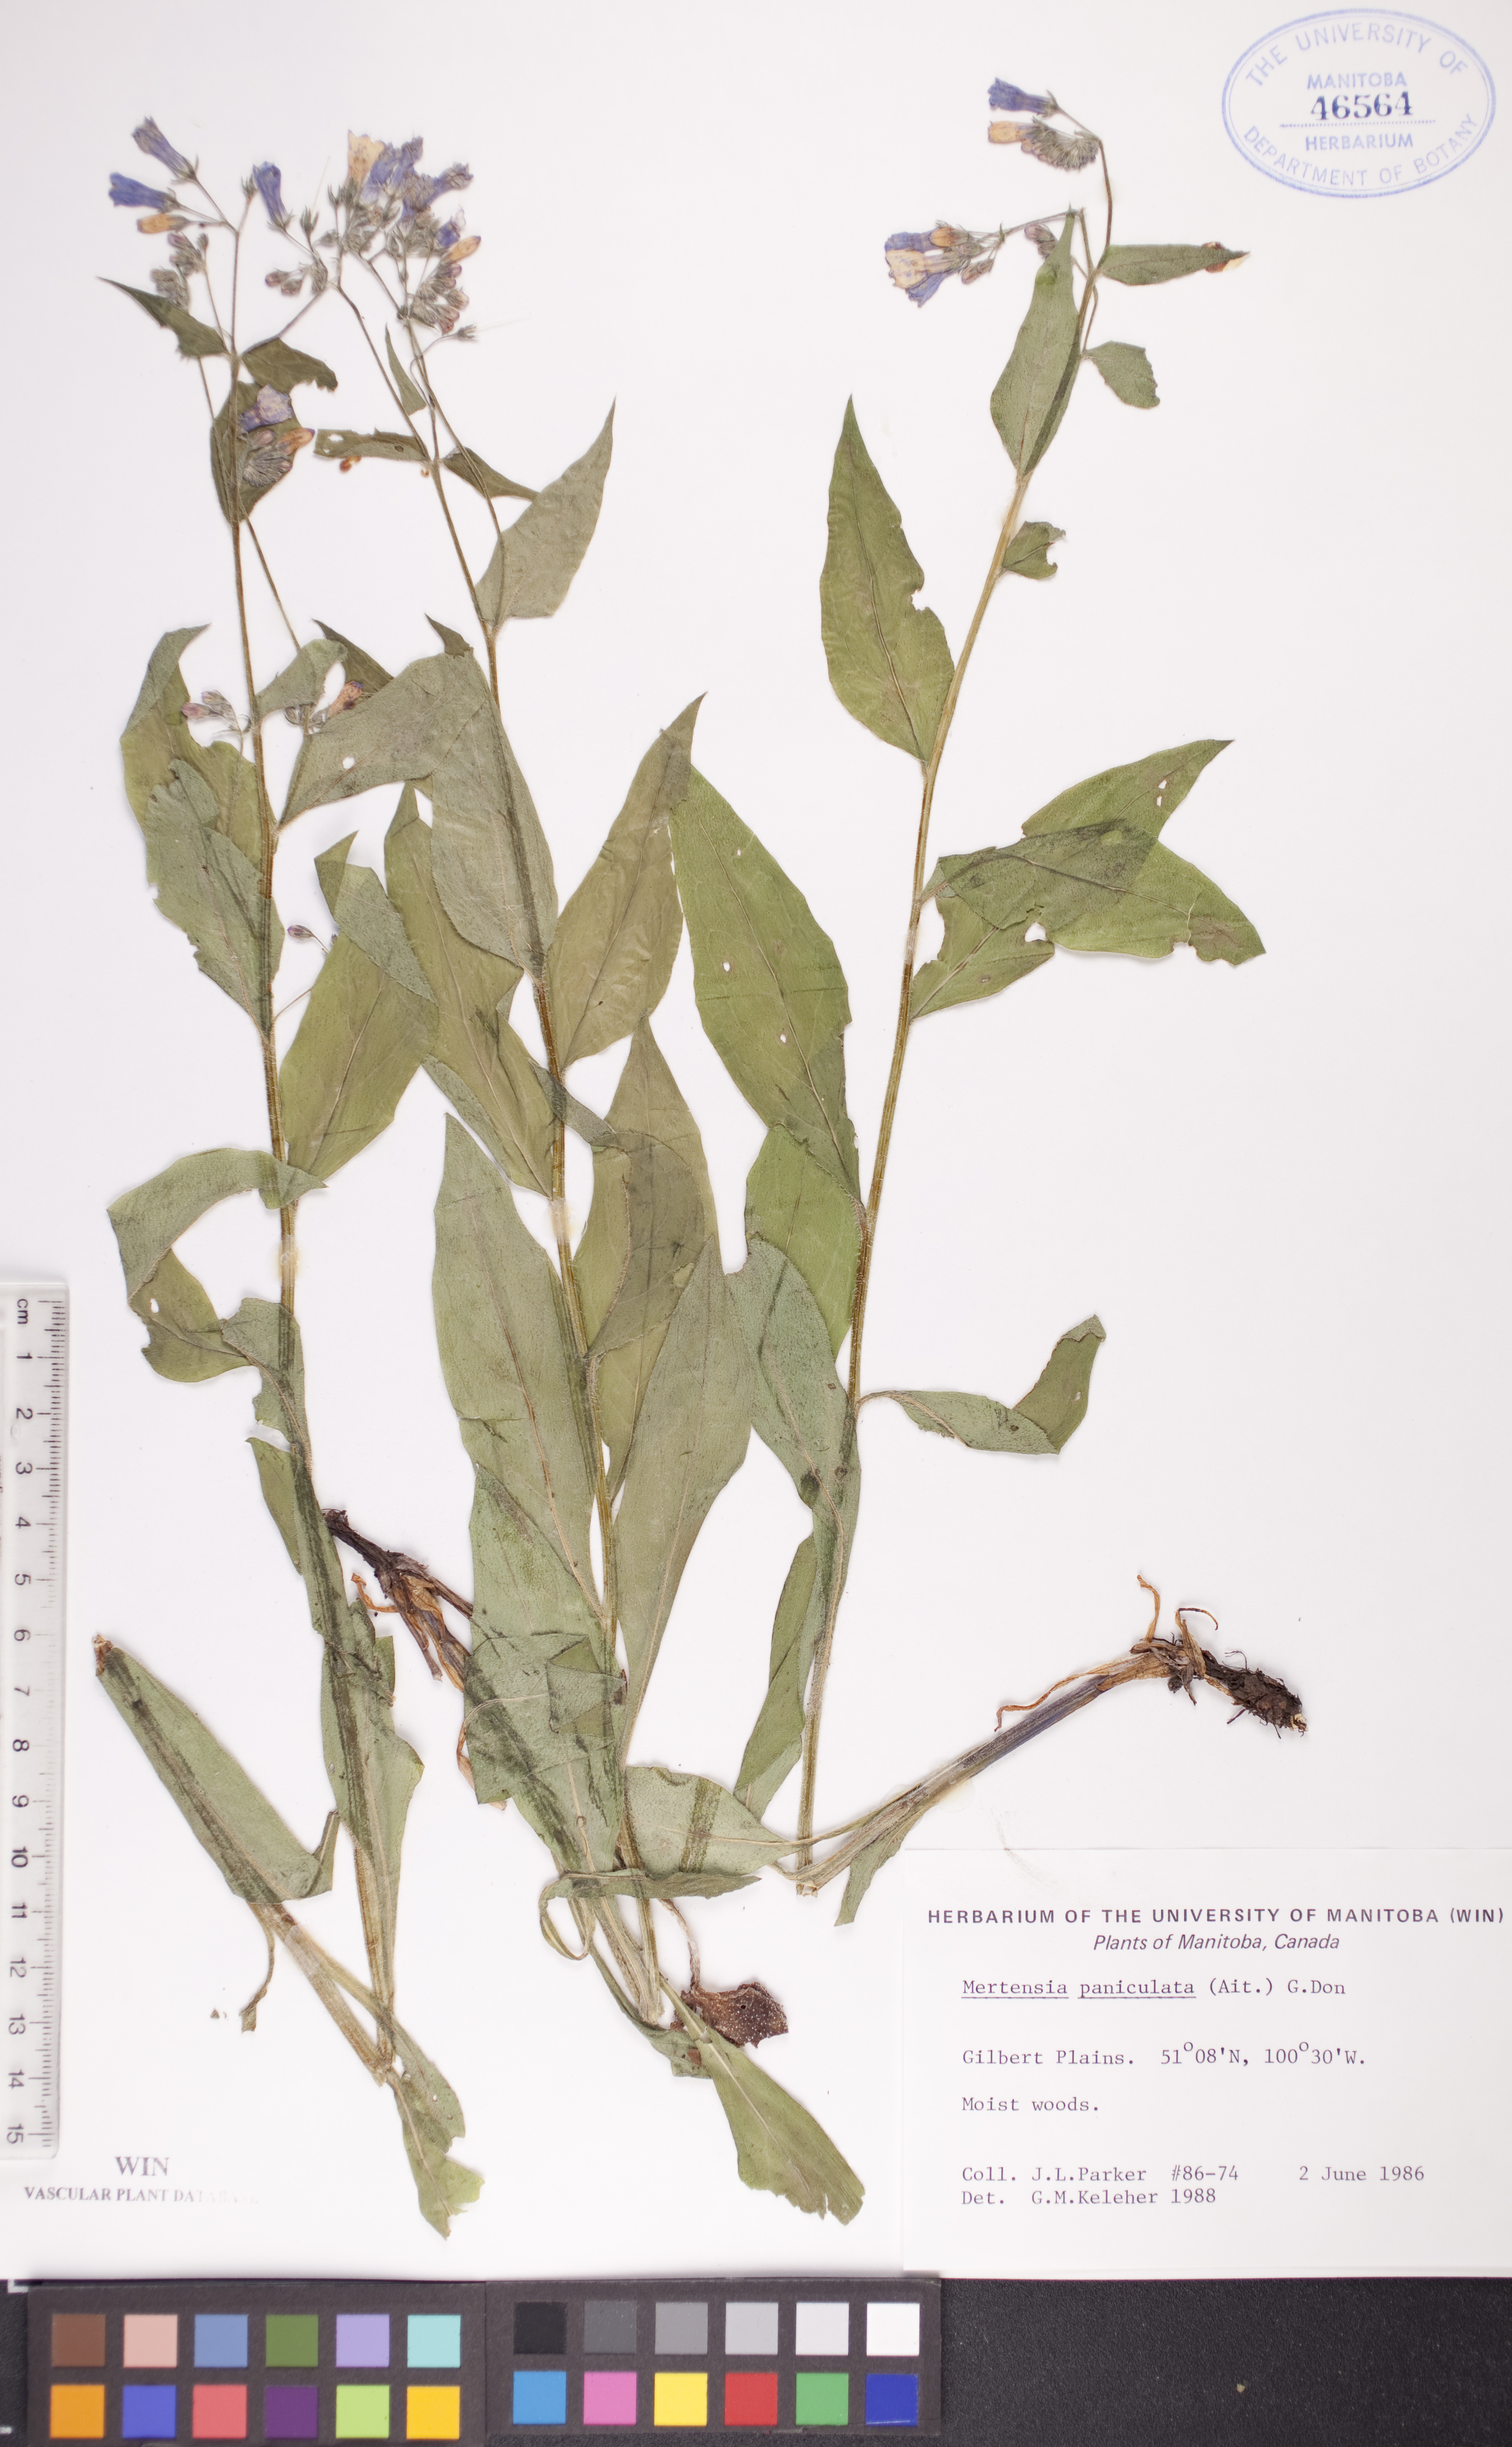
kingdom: Plantae
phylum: Tracheophyta
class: Magnoliopsida
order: Boraginales
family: Boraginaceae
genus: Mertensia
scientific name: Mertensia paniculata
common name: Panicled bluebells
